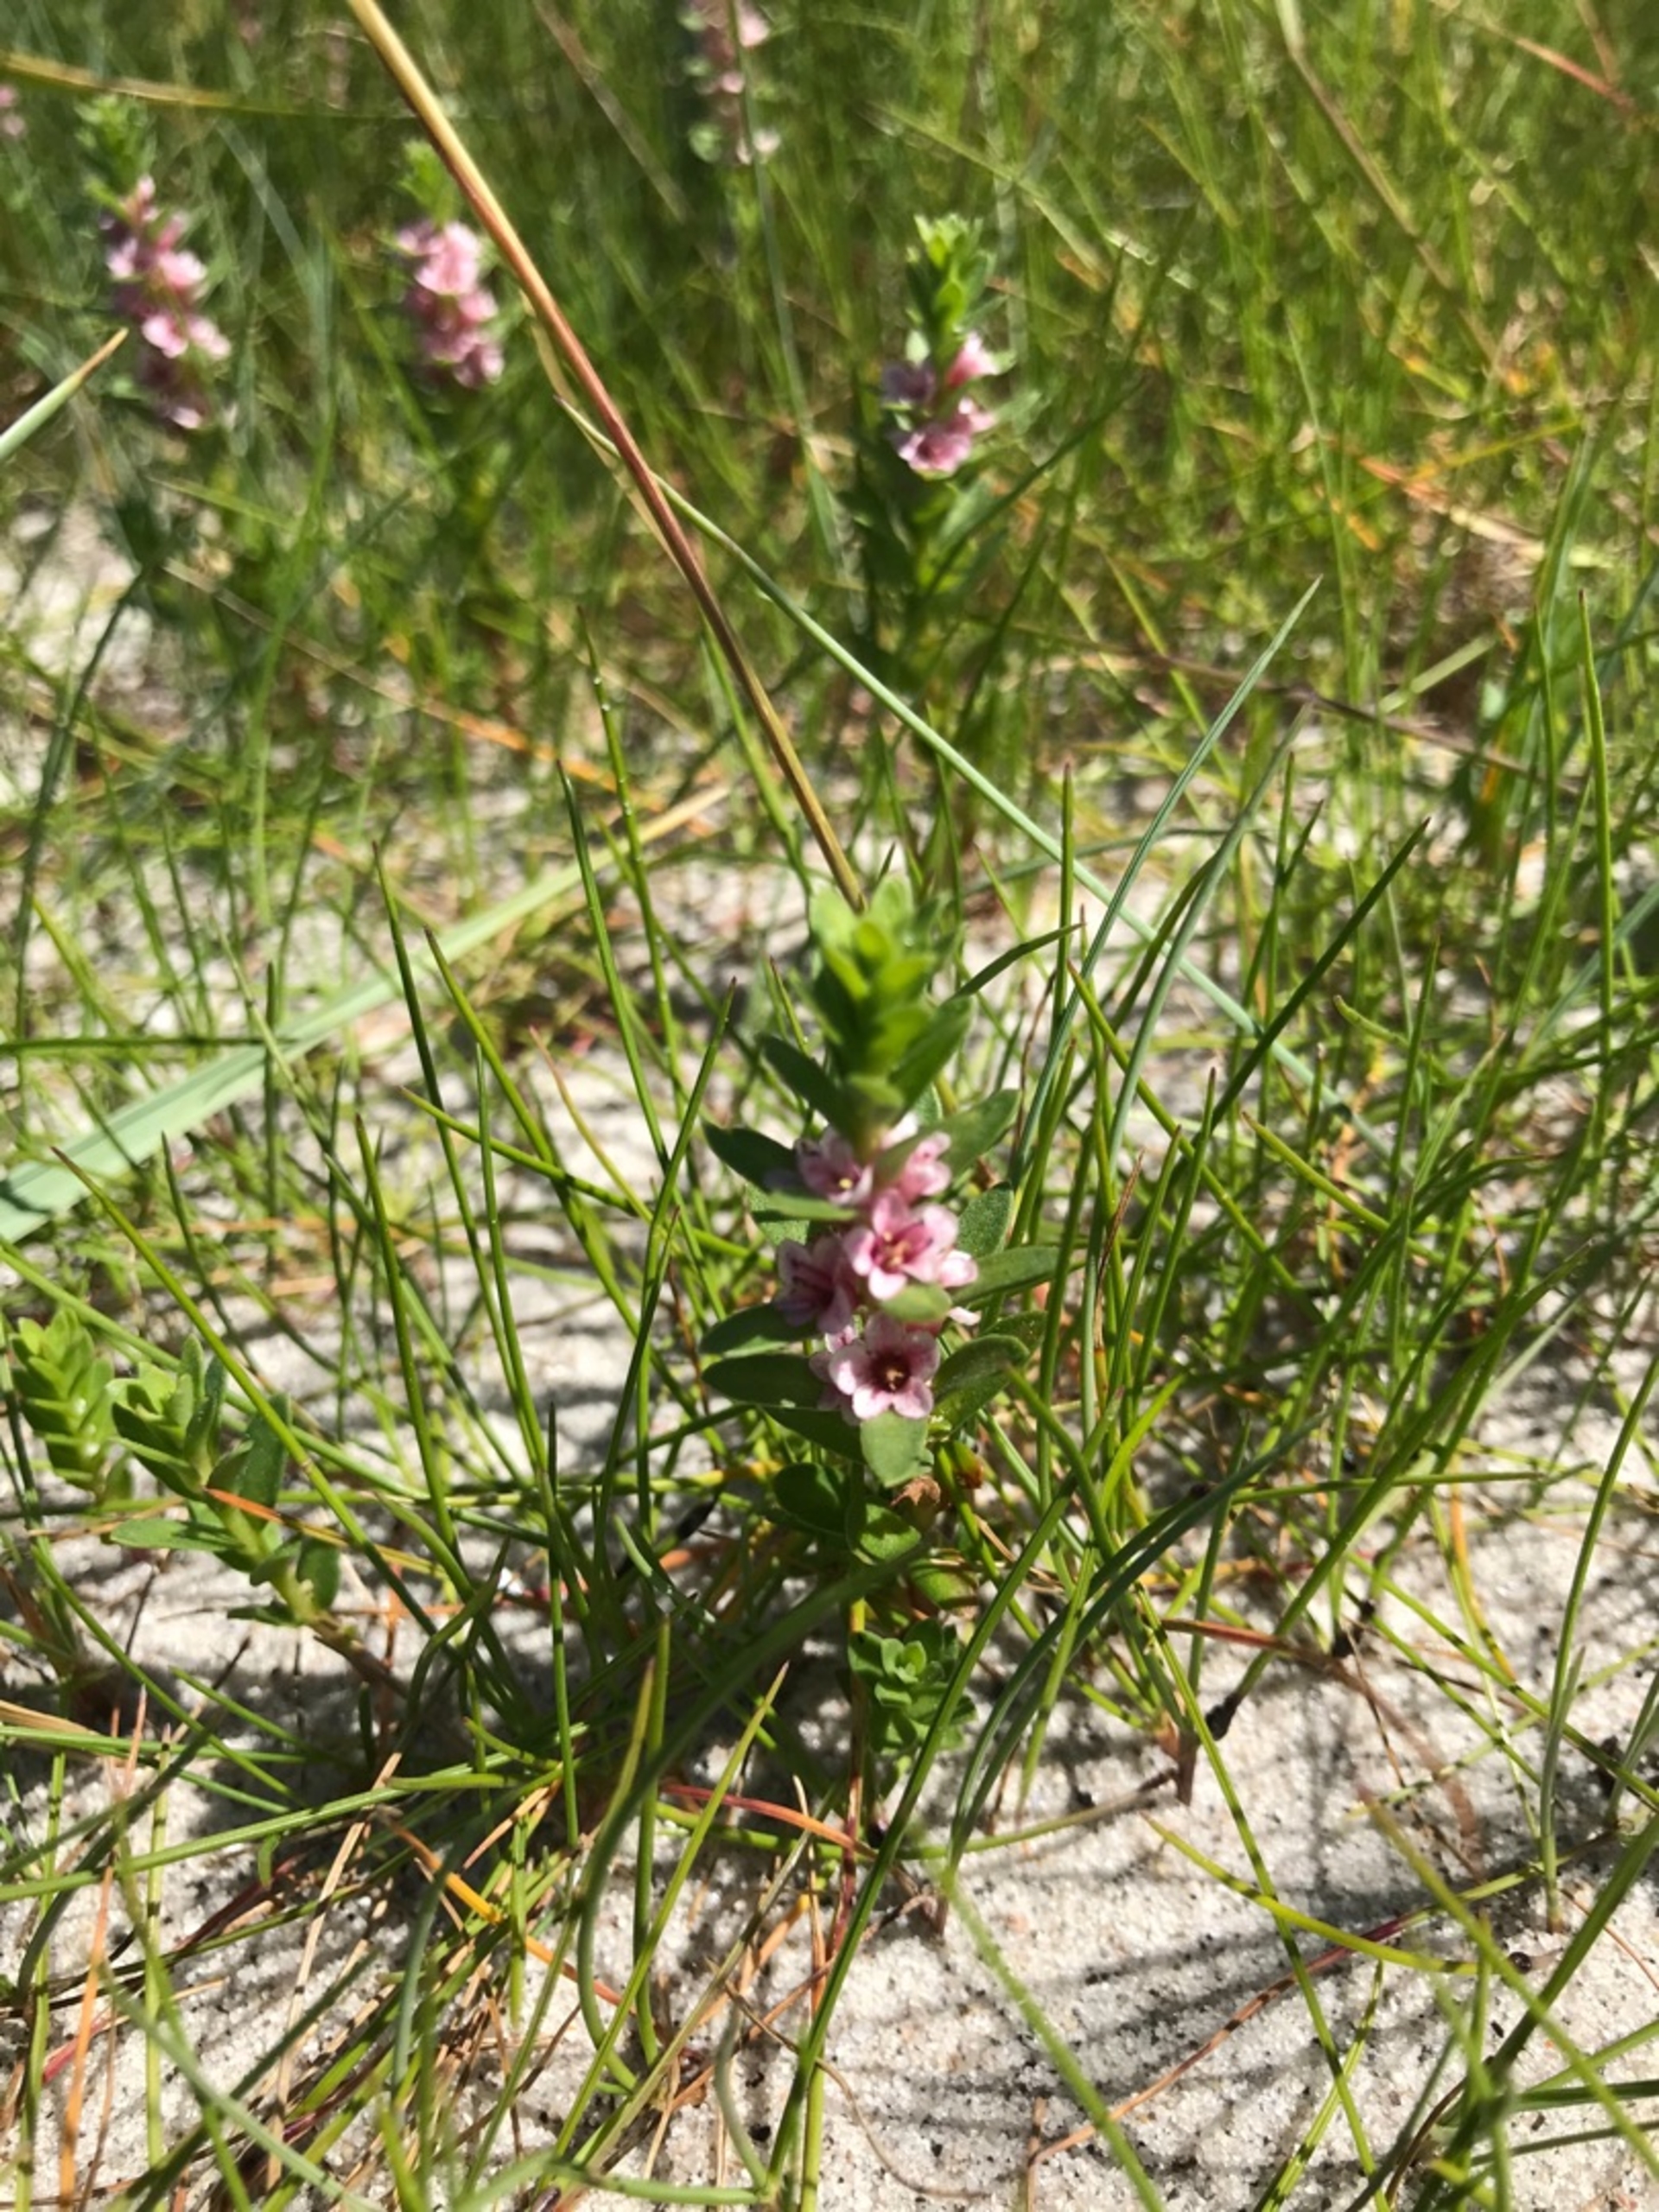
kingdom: Plantae
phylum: Tracheophyta
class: Magnoliopsida
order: Ericales
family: Primulaceae
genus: Lysimachia
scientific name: Lysimachia maritima
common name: Sandkryb
